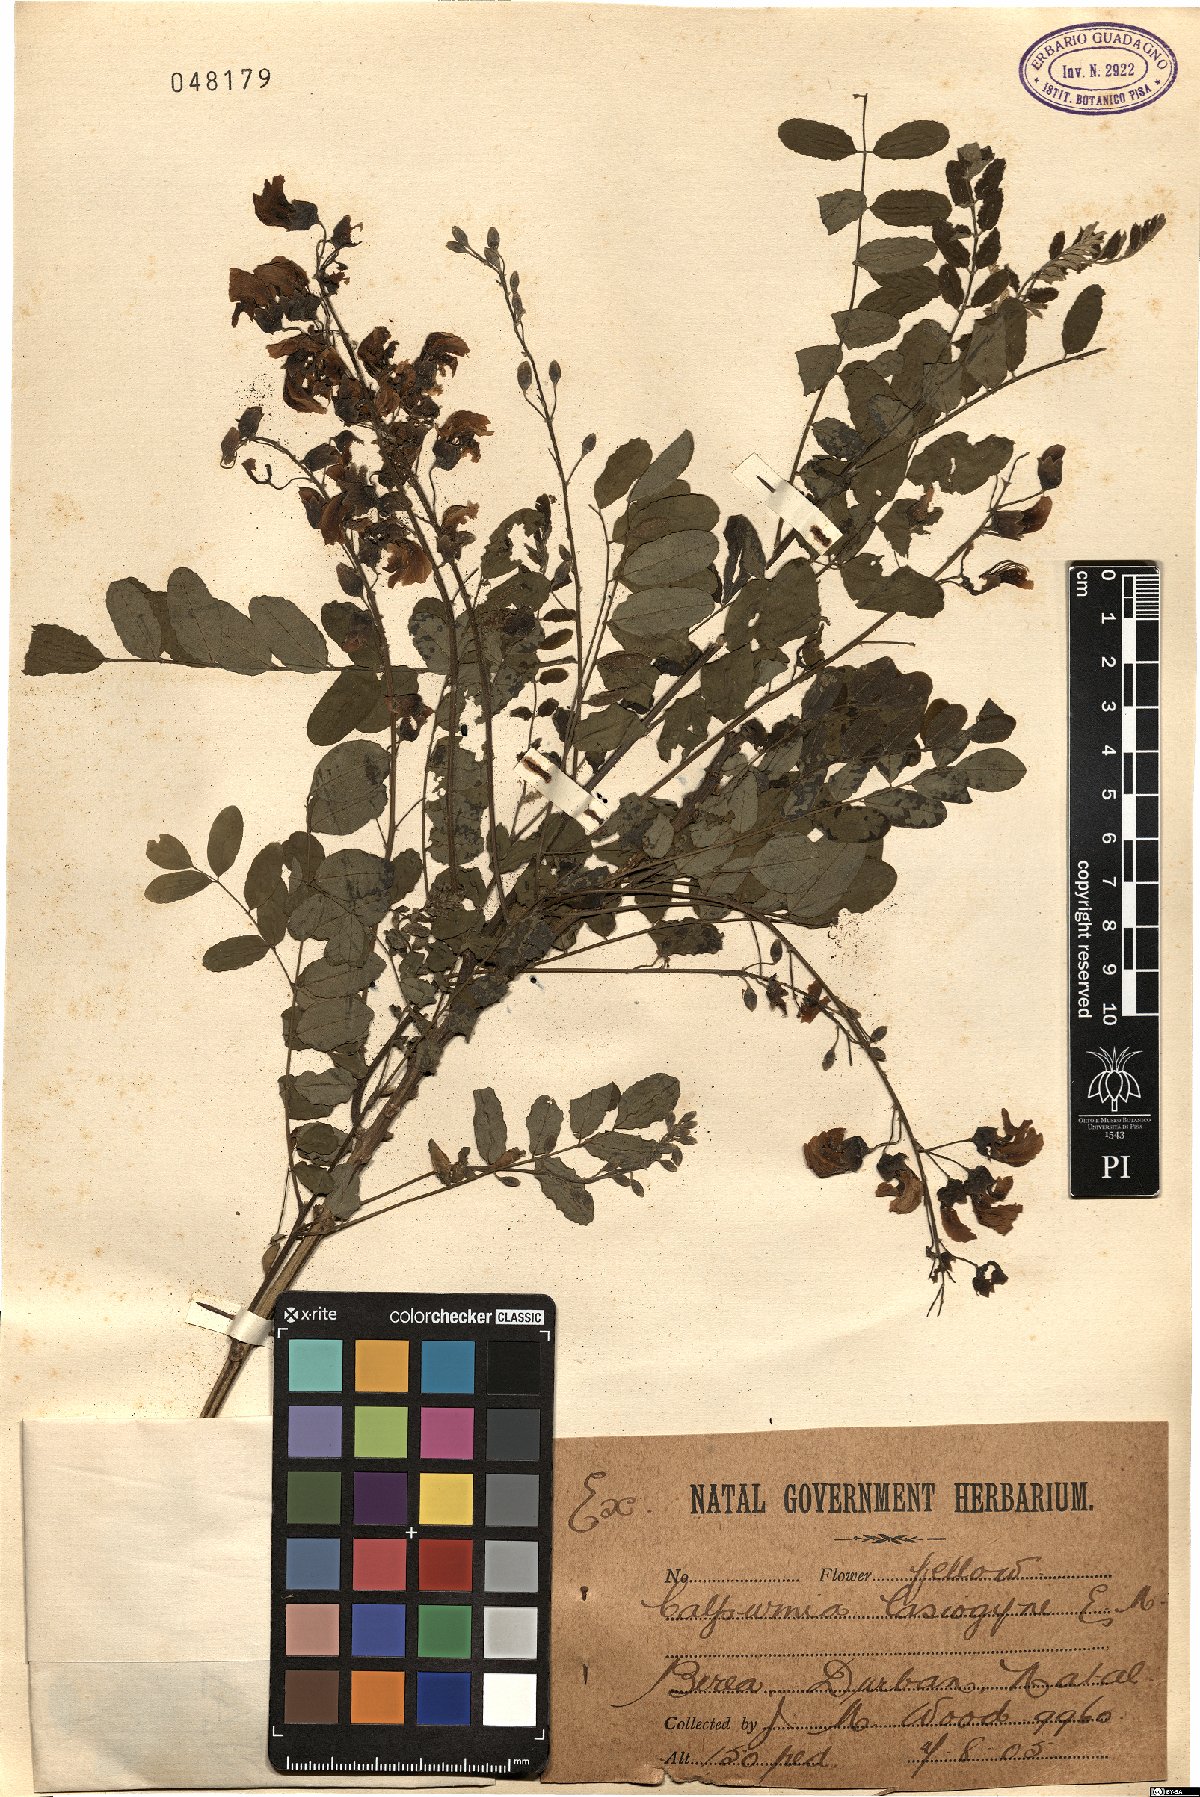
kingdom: Plantae
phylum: Tracheophyta
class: Magnoliopsida
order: Fabales
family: Fabaceae
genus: Calpurnia
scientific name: Calpurnia aurea
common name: Wild laburnum
